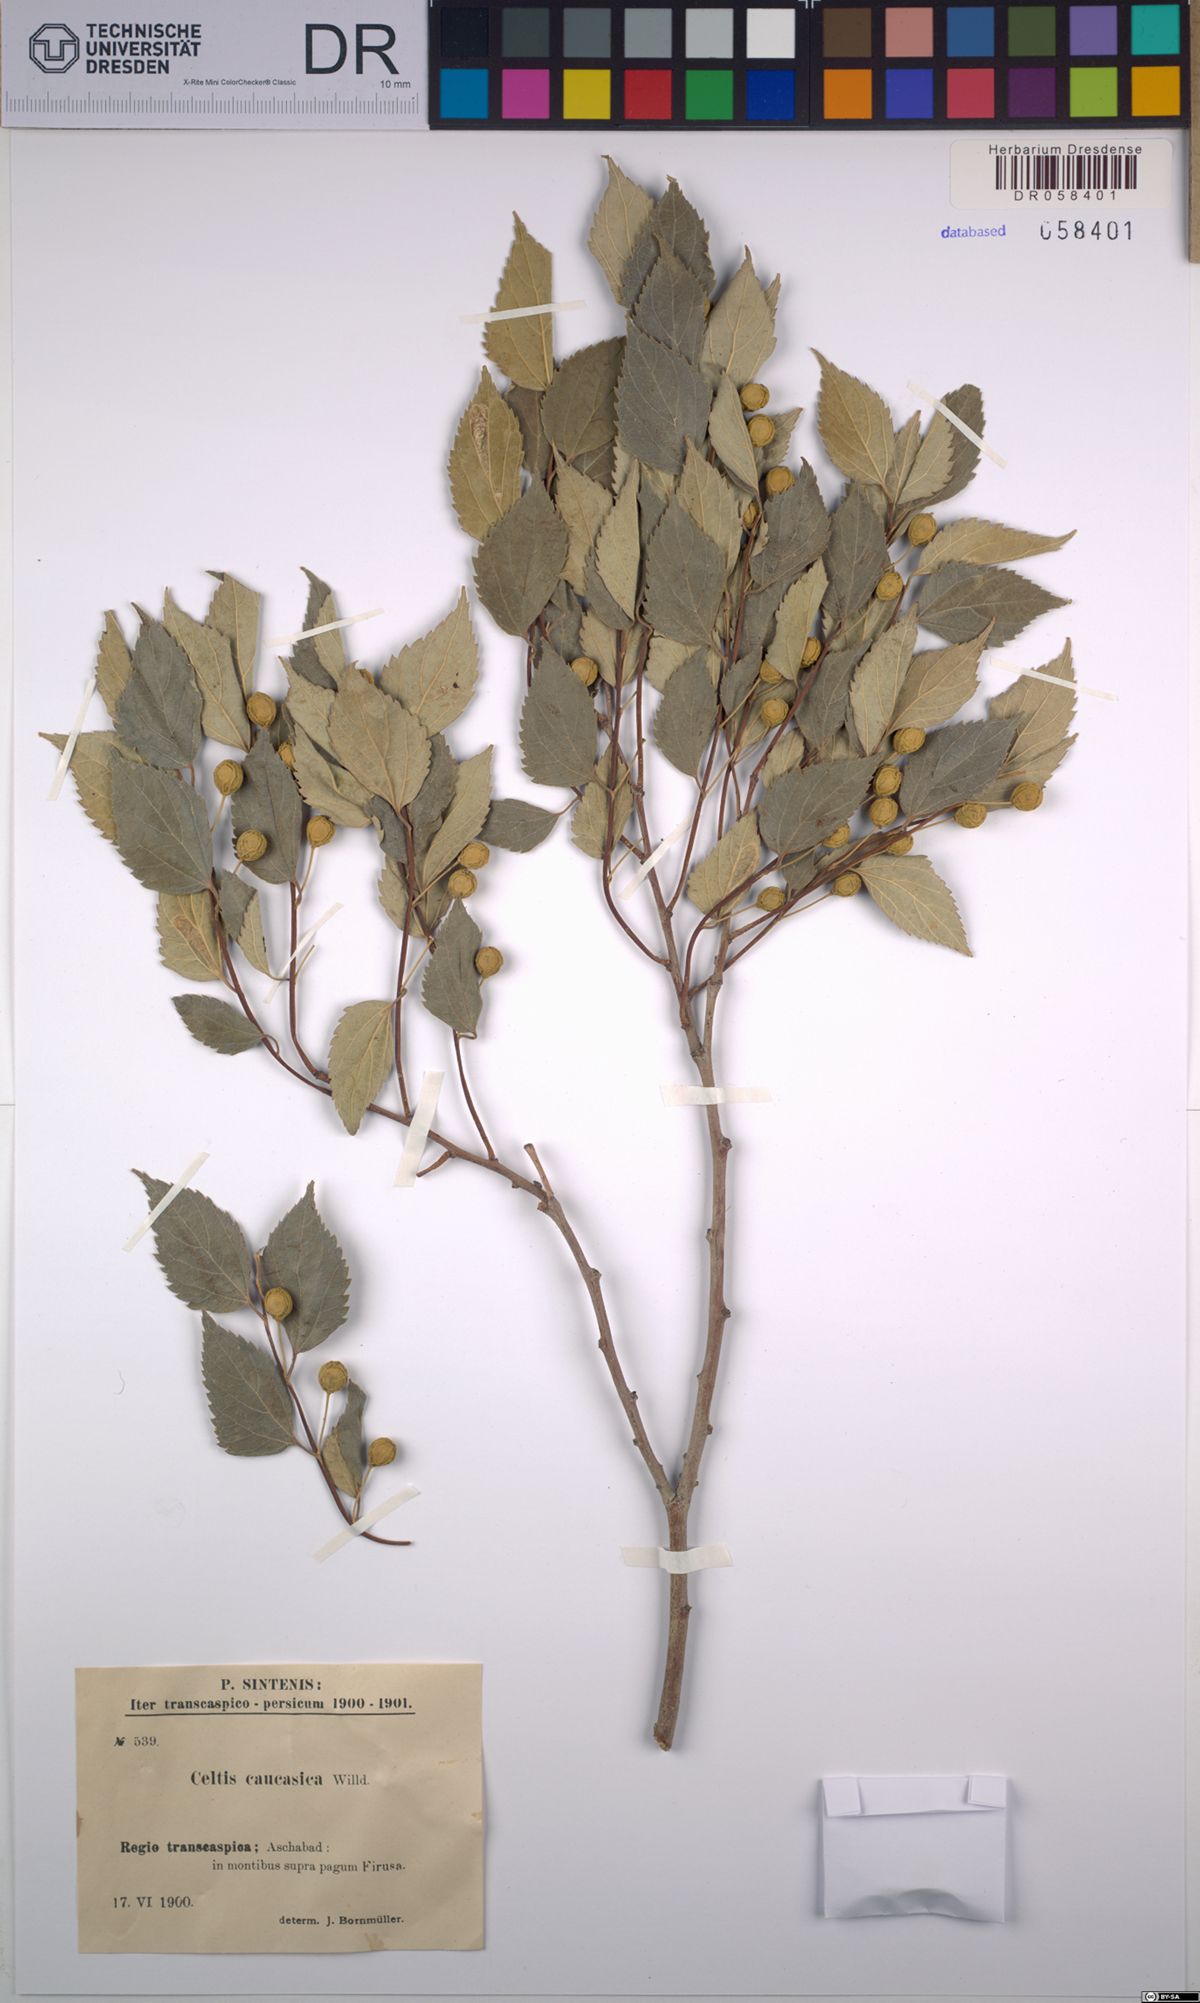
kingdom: Plantae
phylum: Tracheophyta
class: Magnoliopsida
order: Rosales
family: Cannabaceae
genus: Celtis
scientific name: Celtis caucasica
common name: Caucasian hackberry
